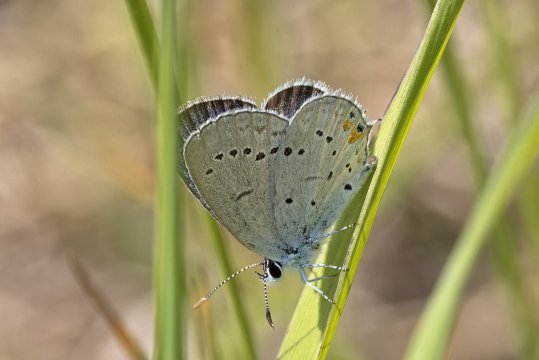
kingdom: Animalia
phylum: Arthropoda
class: Insecta
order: Lepidoptera
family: Lycaenidae
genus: Elkalyce
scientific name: Elkalyce comyntas
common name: Eastern Tailed-Blue
